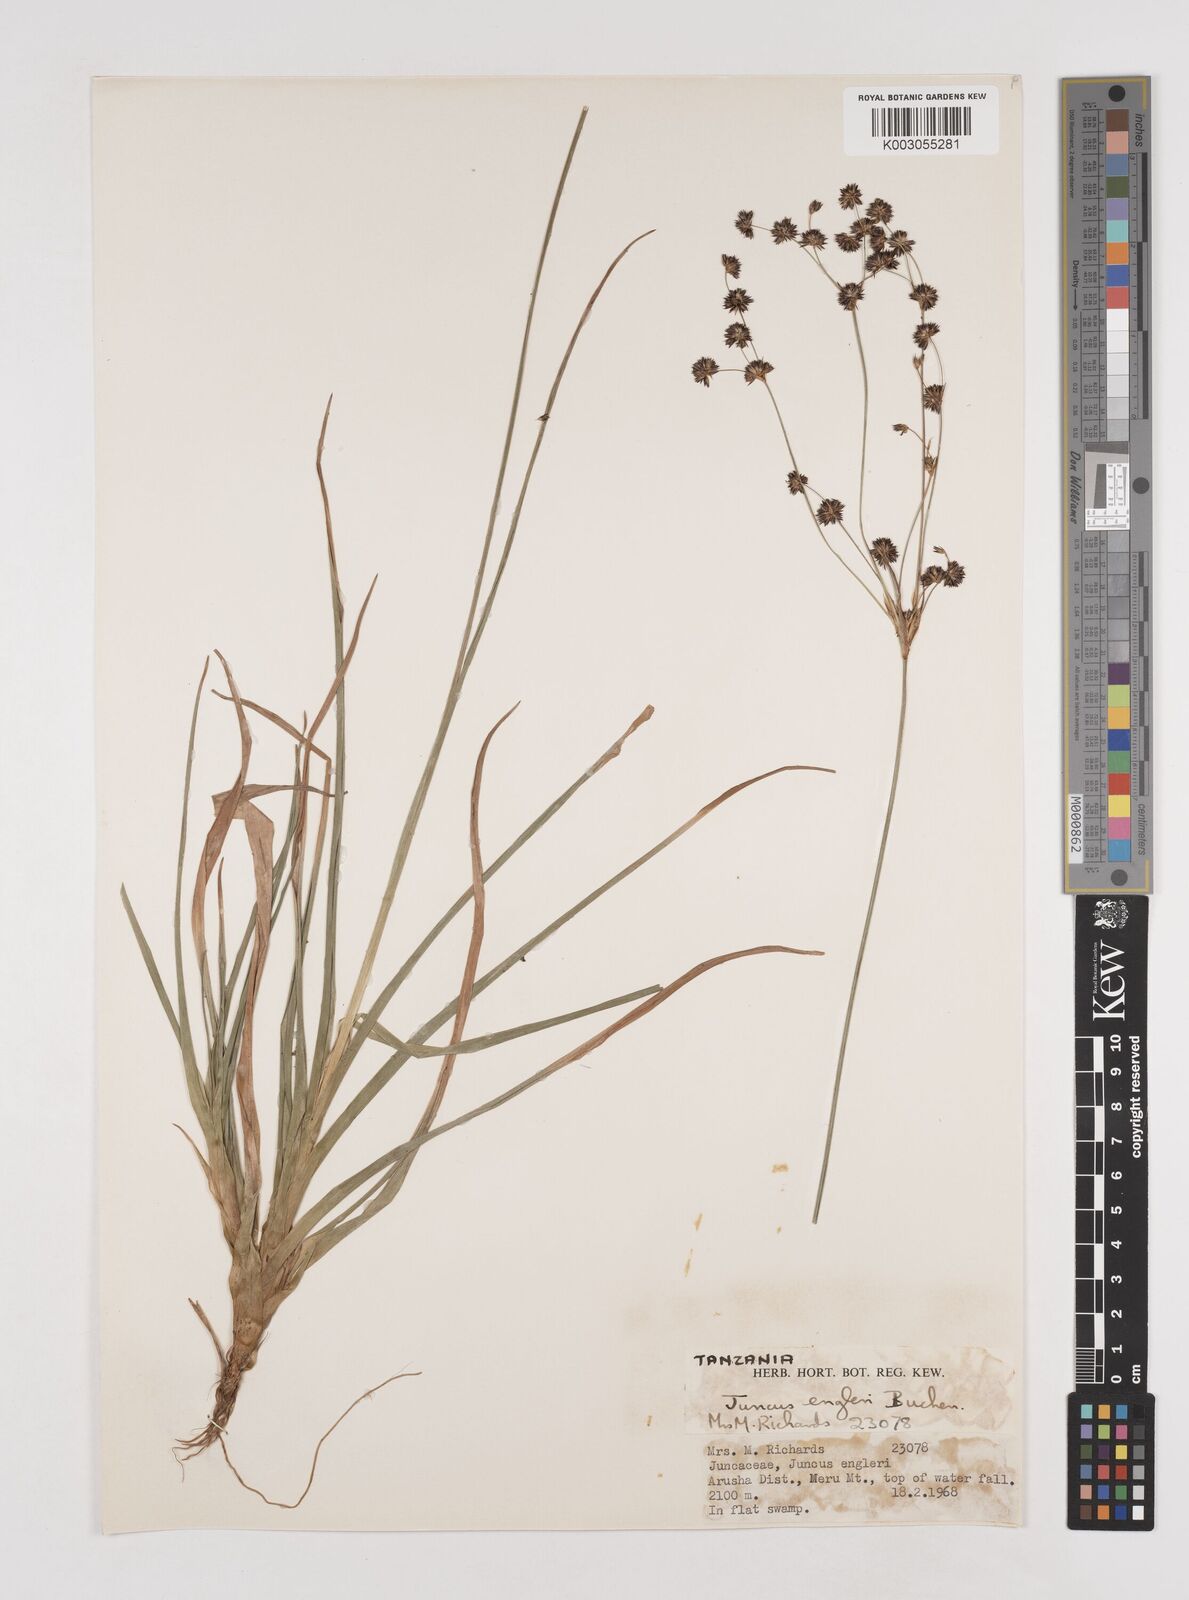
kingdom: Plantae
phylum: Tracheophyta
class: Liliopsida
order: Poales
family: Juncaceae
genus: Juncus
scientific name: Juncus engleri
